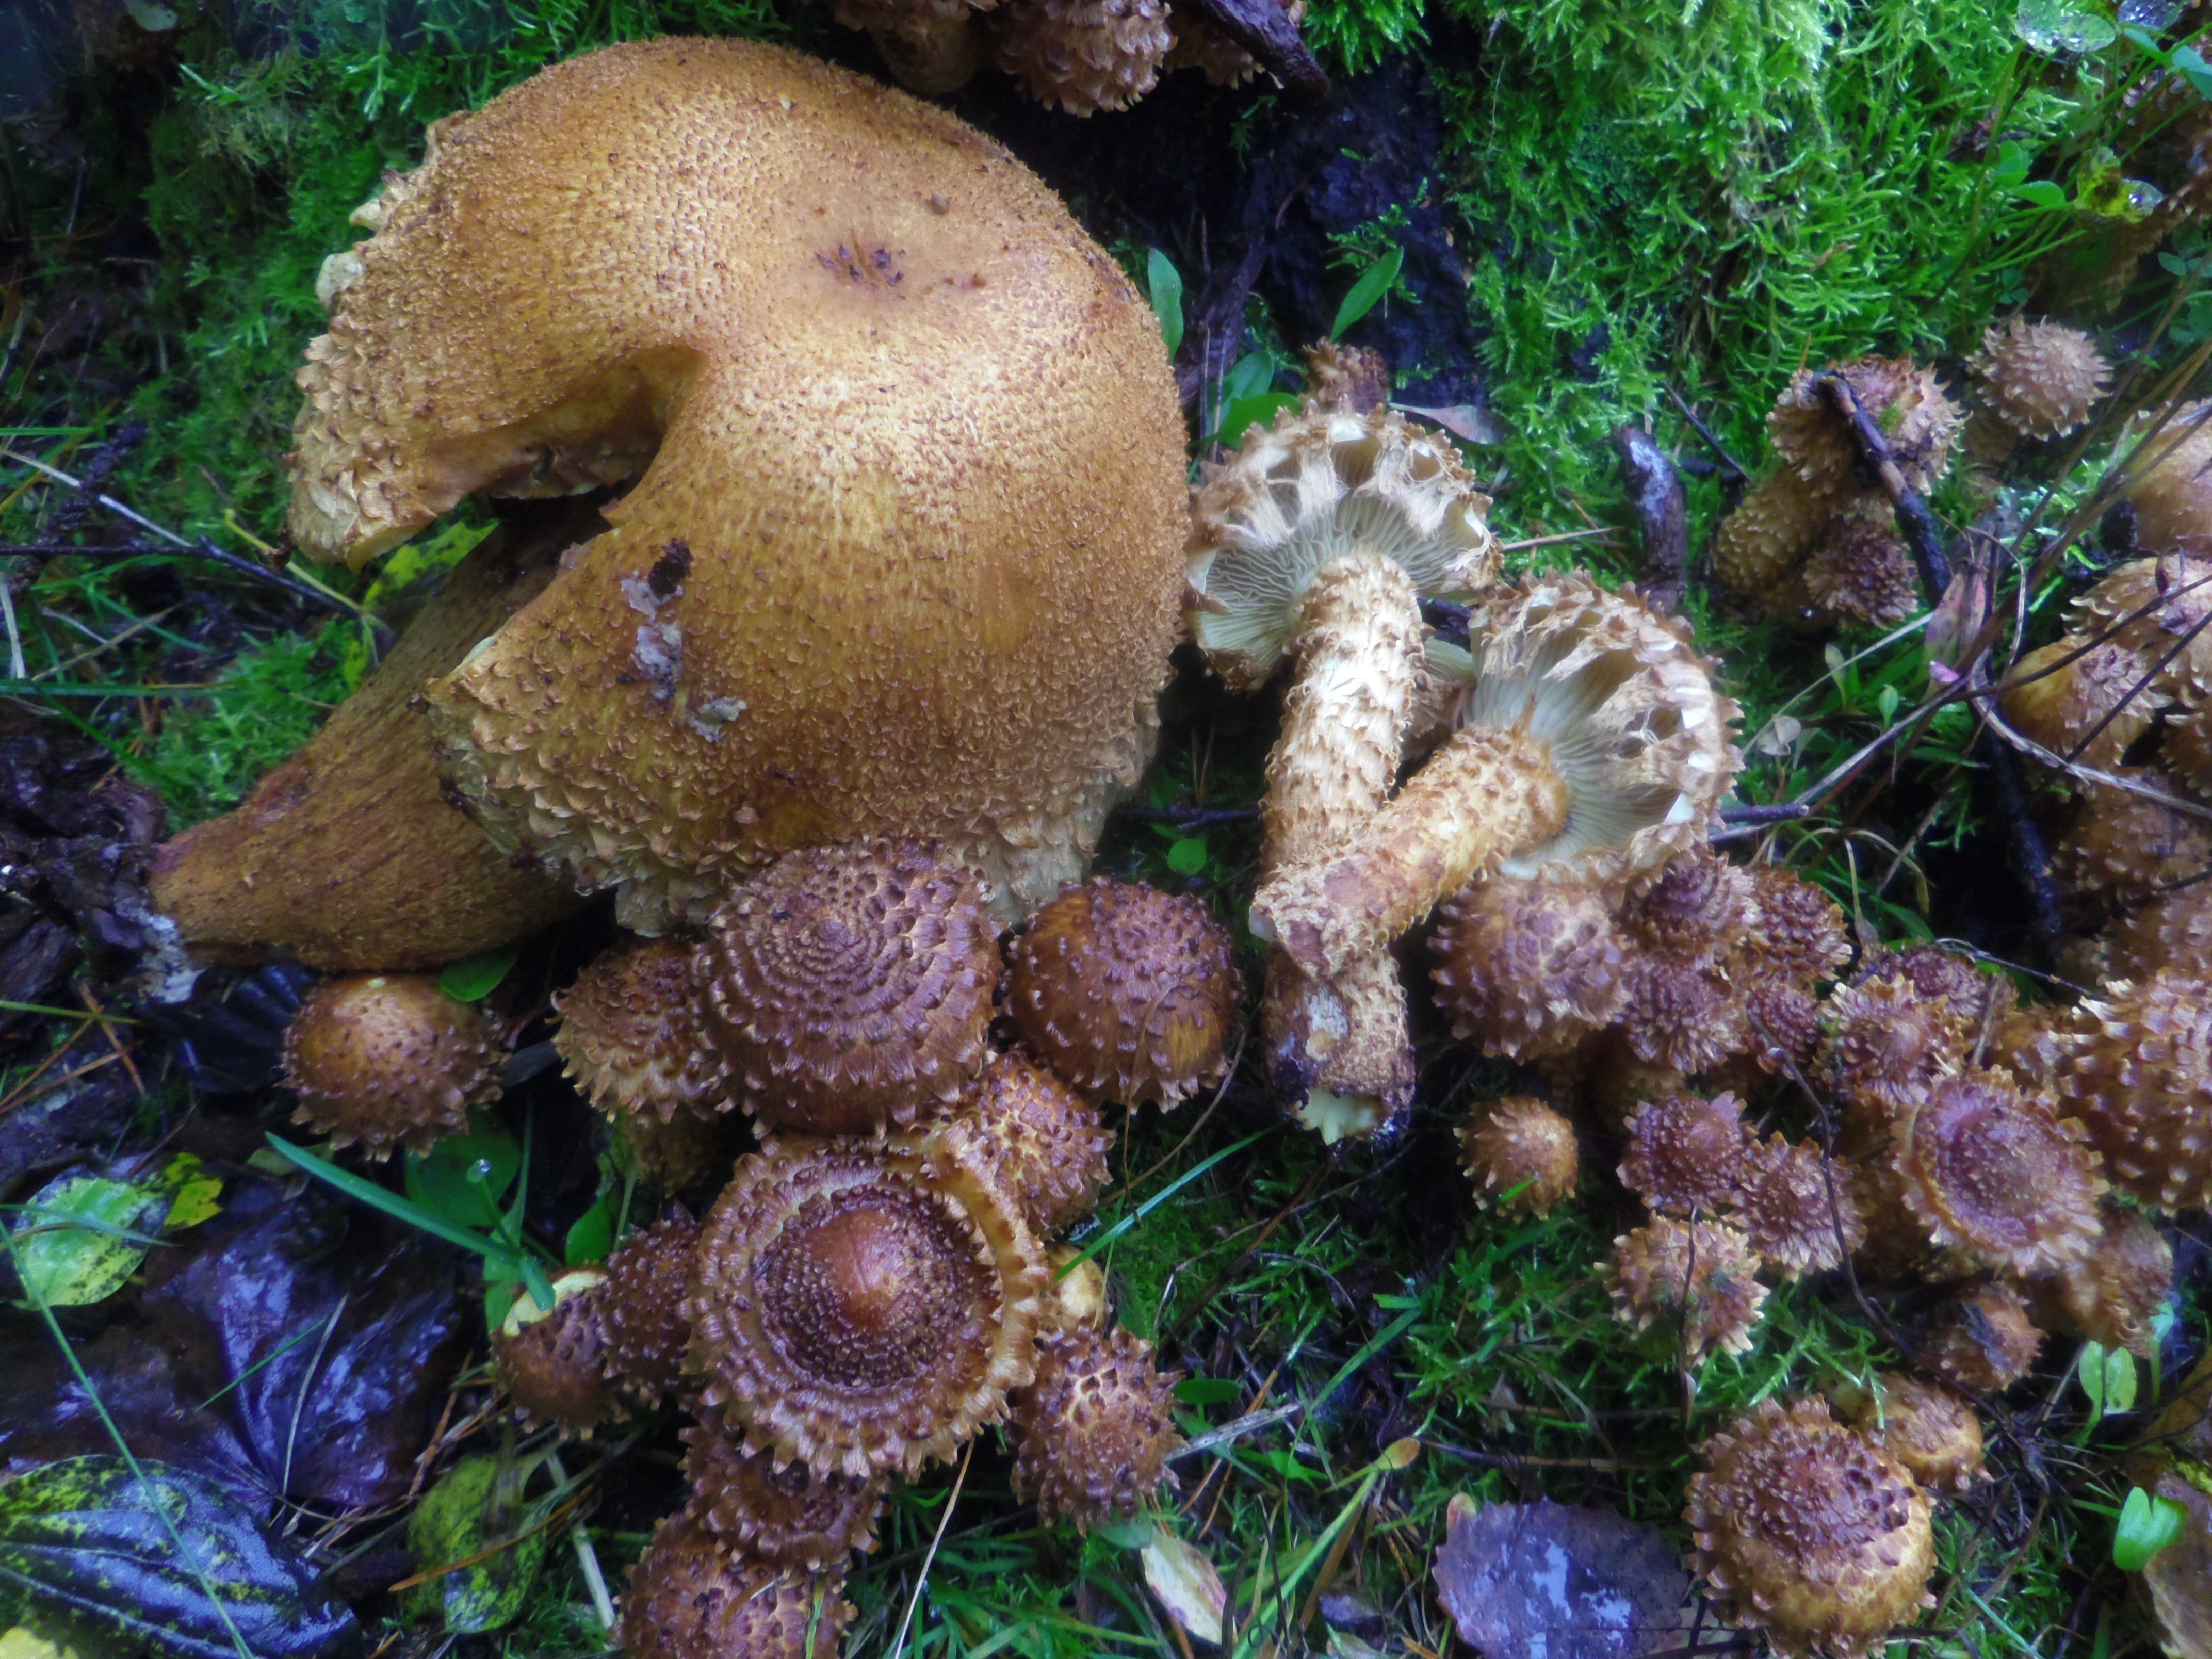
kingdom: Fungi
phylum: Basidiomycota
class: Agaricomycetes
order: Agaricales
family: Strophariaceae
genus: Pholiota
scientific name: Pholiota squarrosa
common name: Shaggy pholiota
